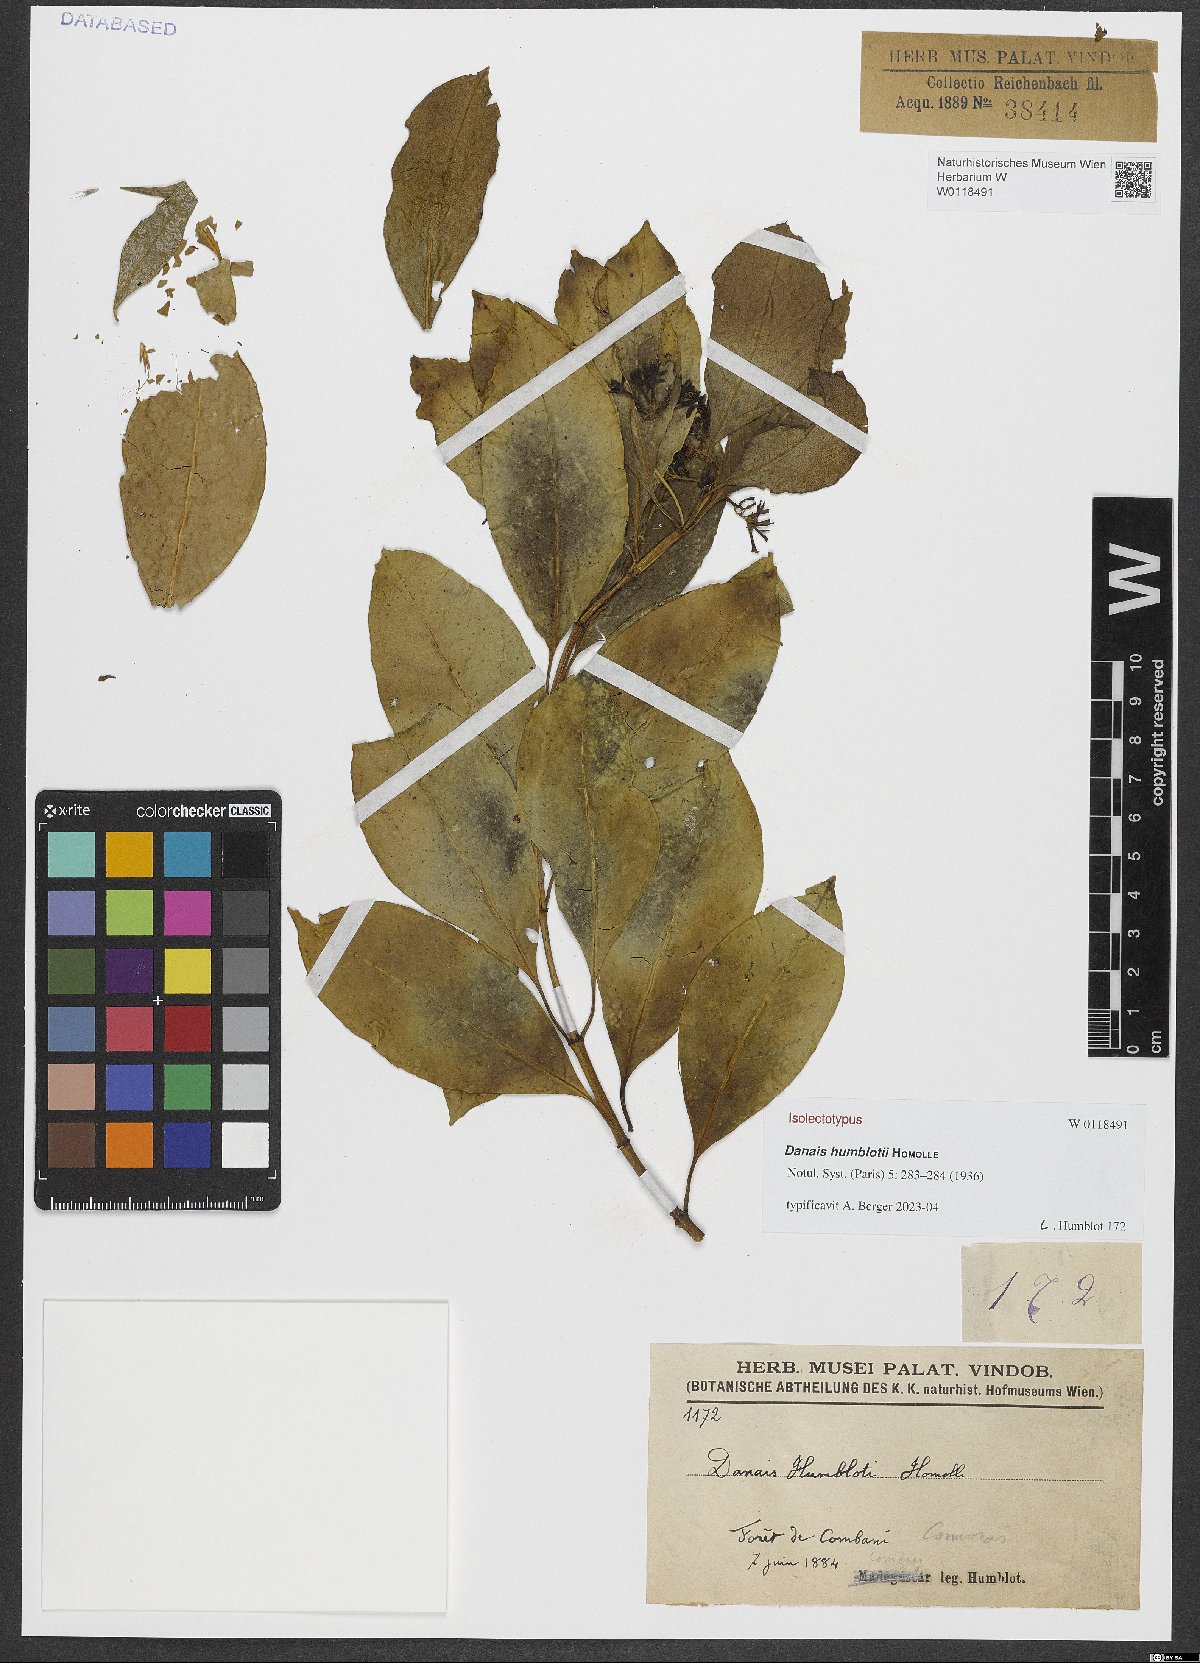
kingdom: Plantae
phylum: Tracheophyta
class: Magnoliopsida
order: Gentianales
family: Rubiaceae
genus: Danais
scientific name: Danais humblotii
